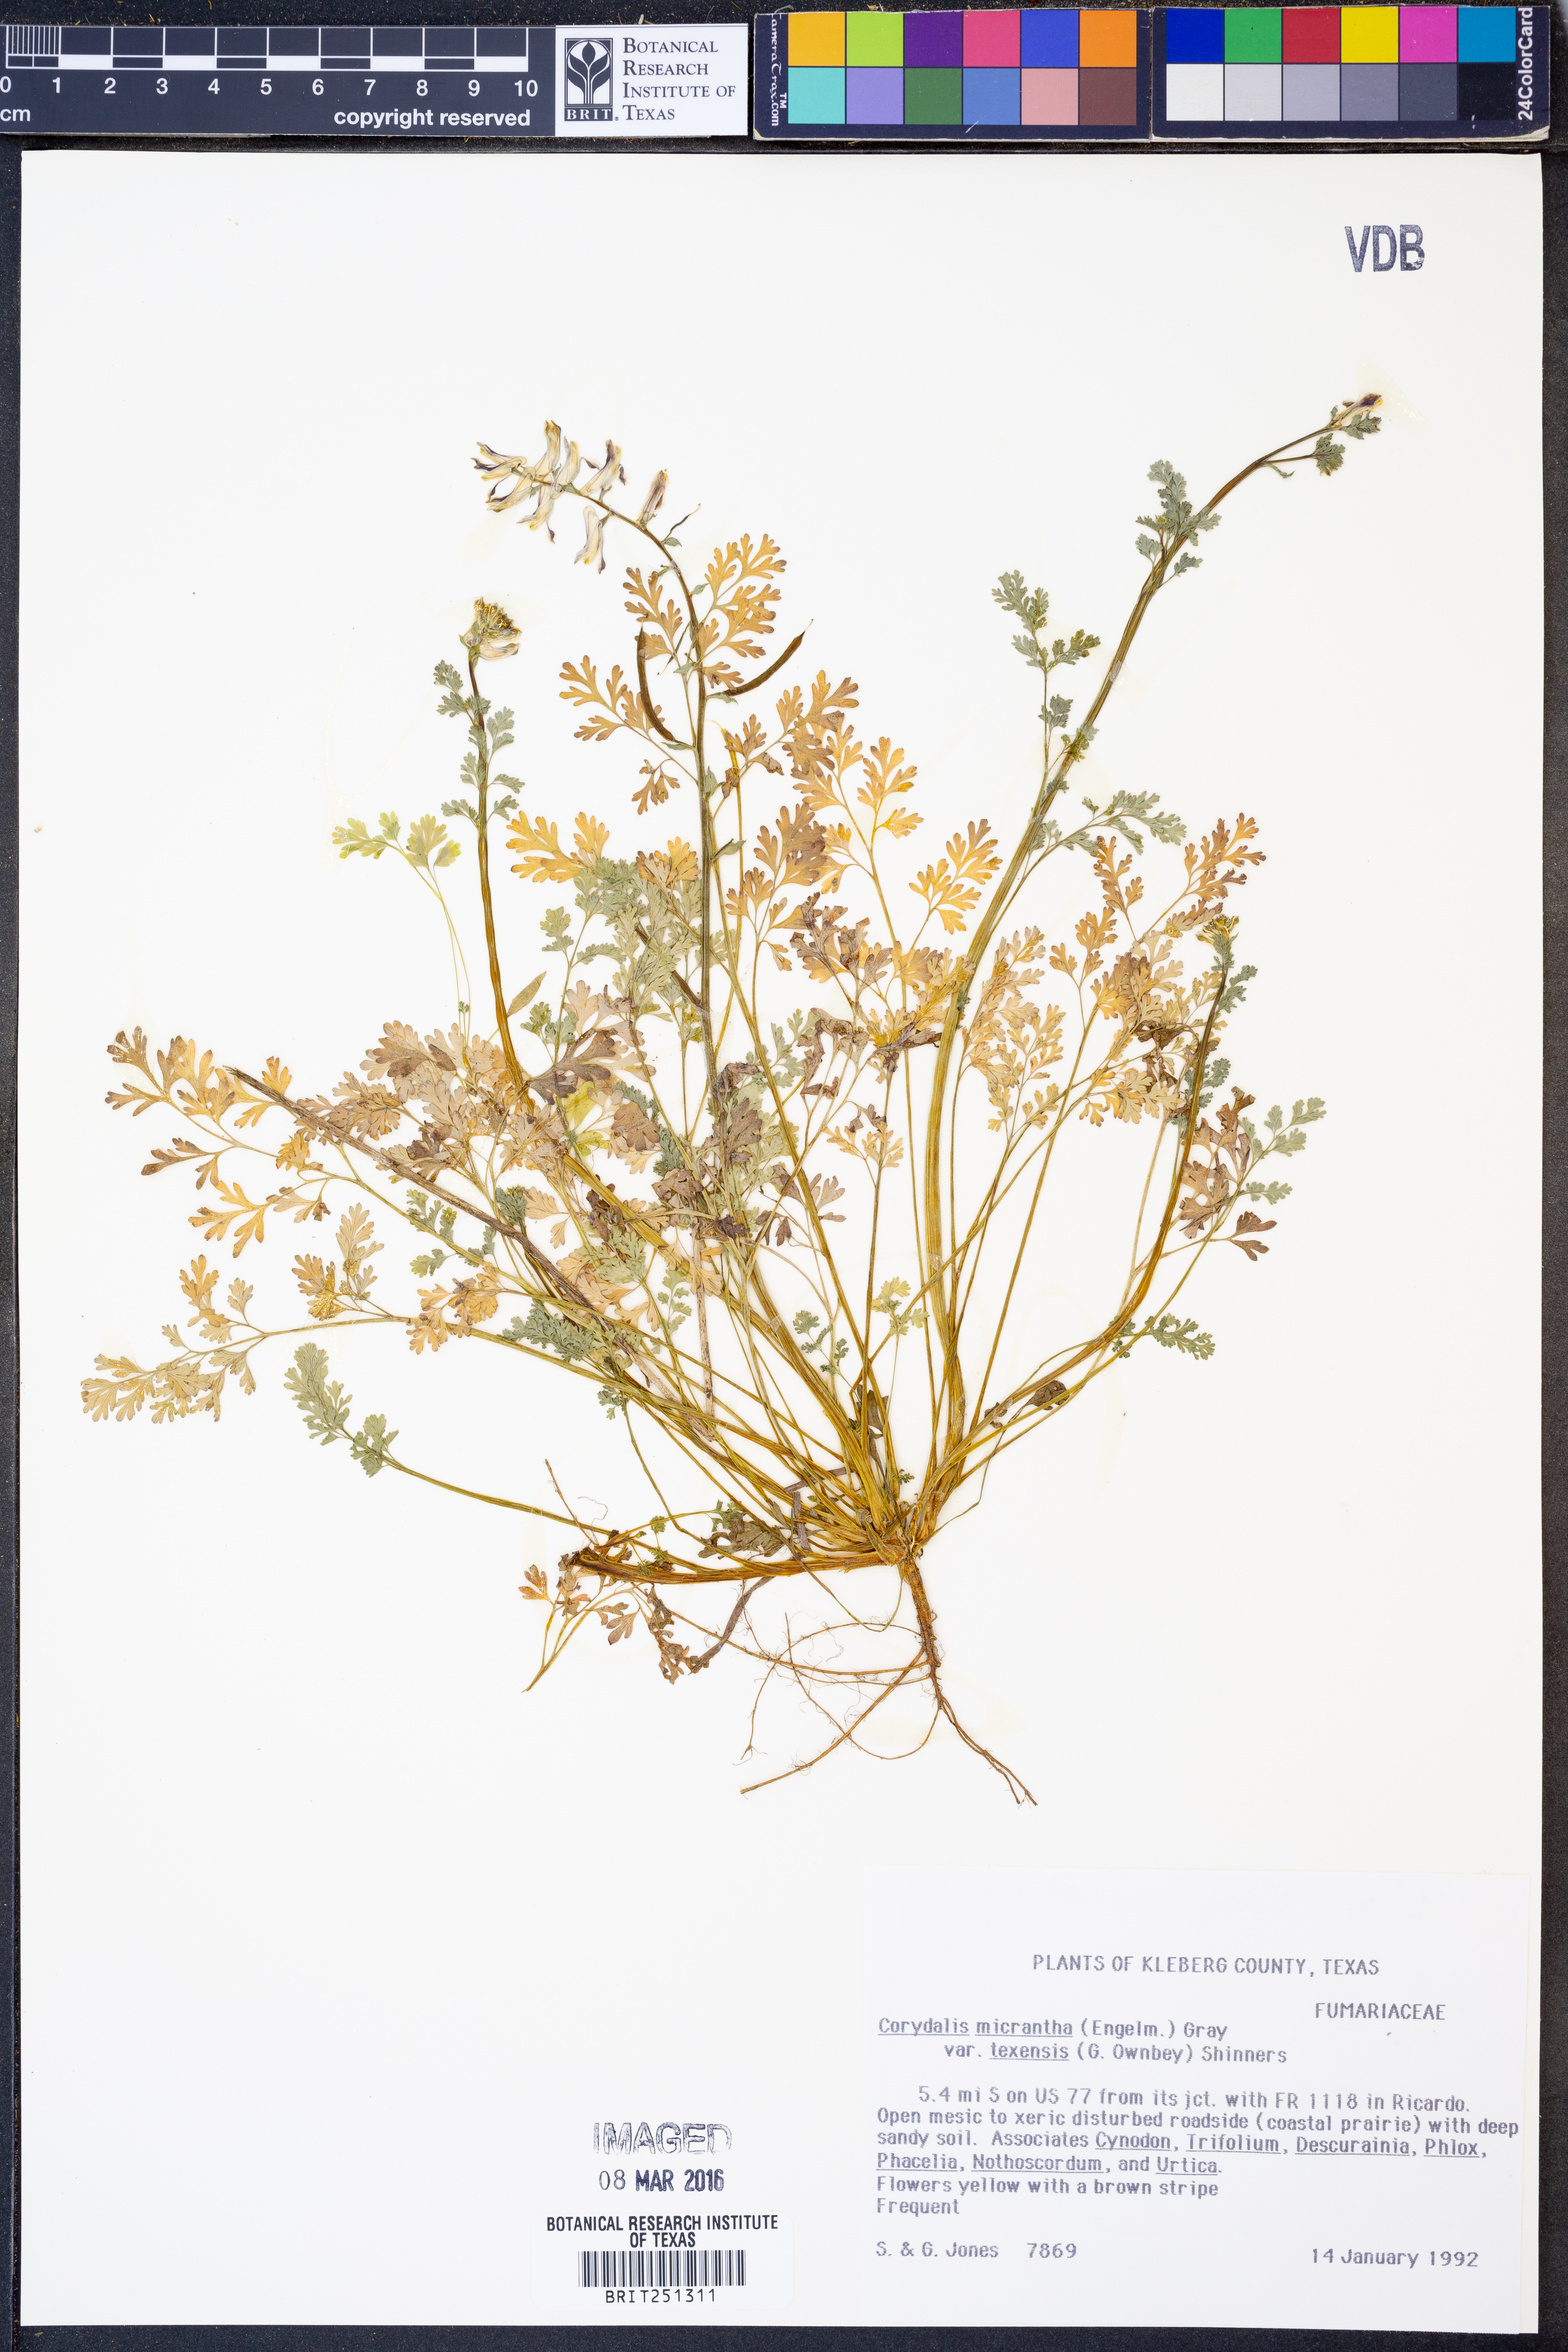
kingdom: Plantae
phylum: Tracheophyta
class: Magnoliopsida
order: Ranunculales
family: Papaveraceae
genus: Corydalis
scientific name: Corydalis micrantha
